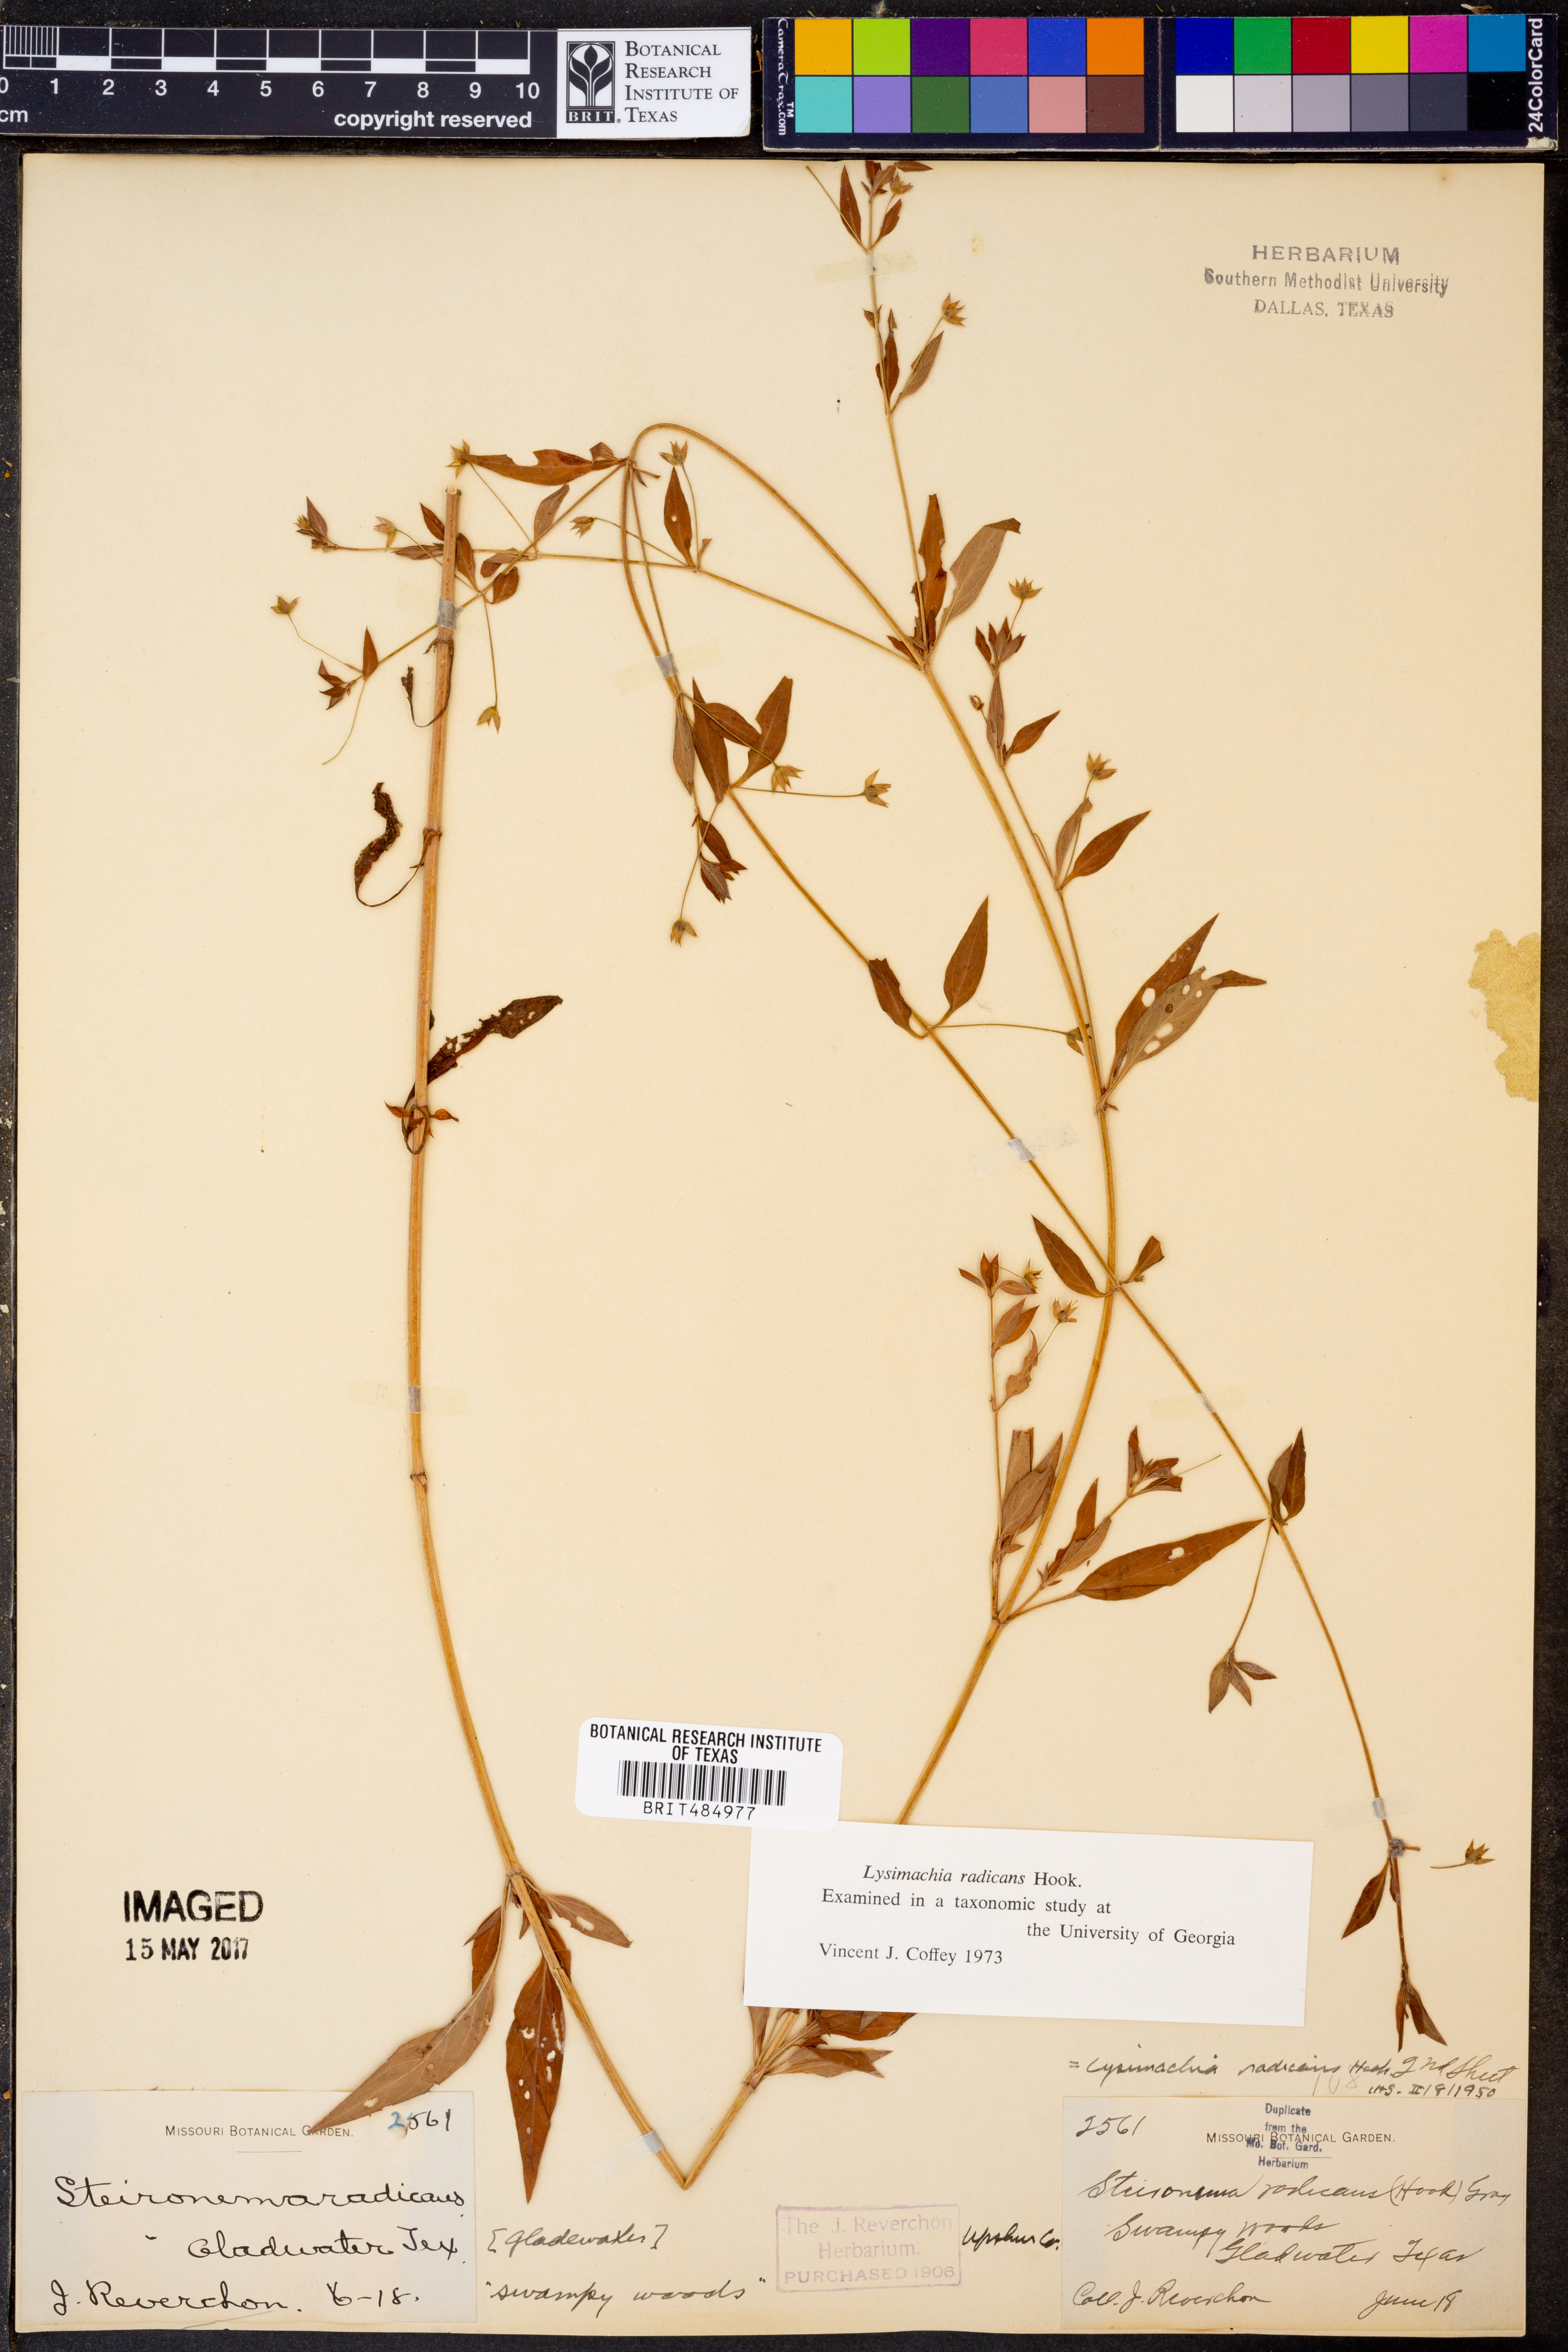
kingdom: Plantae
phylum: Tracheophyta
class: Magnoliopsida
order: Ericales
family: Primulaceae
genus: Lysimachia
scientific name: Lysimachia radicans
